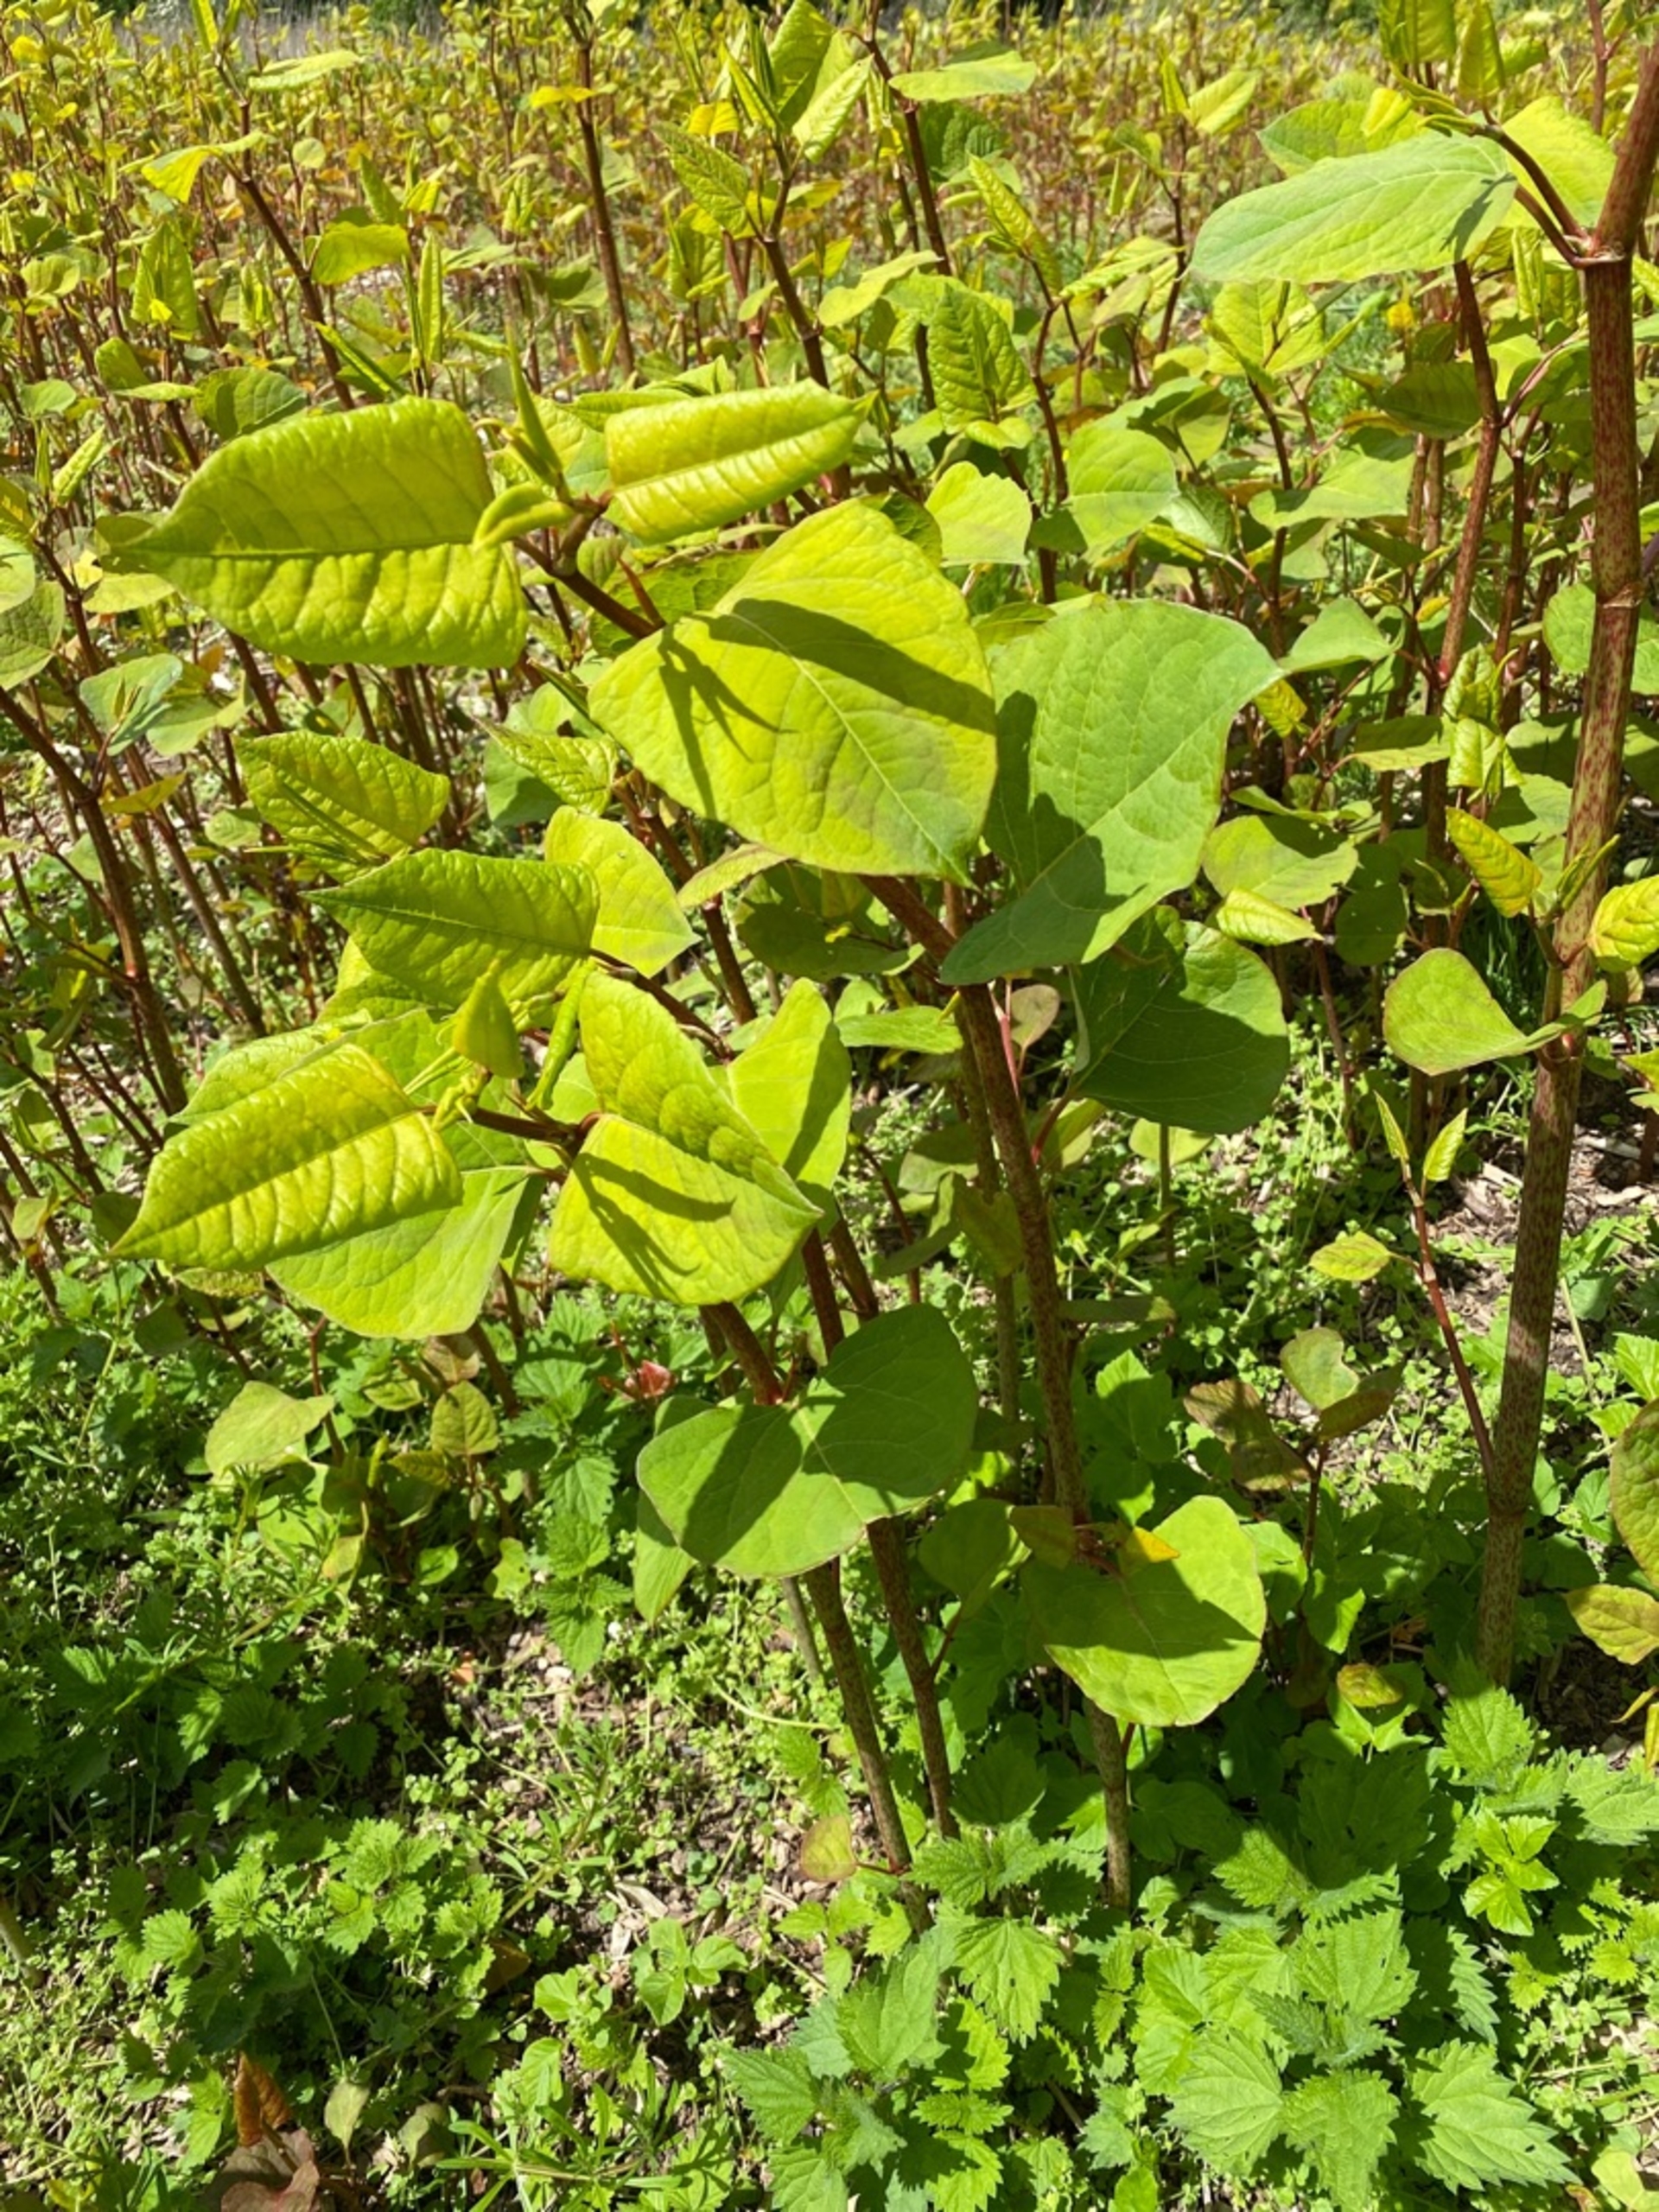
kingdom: Plantae
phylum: Tracheophyta
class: Magnoliopsida
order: Caryophyllales
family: Polygonaceae
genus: Reynoutria
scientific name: Reynoutria japonica
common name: Japan-pileurt
